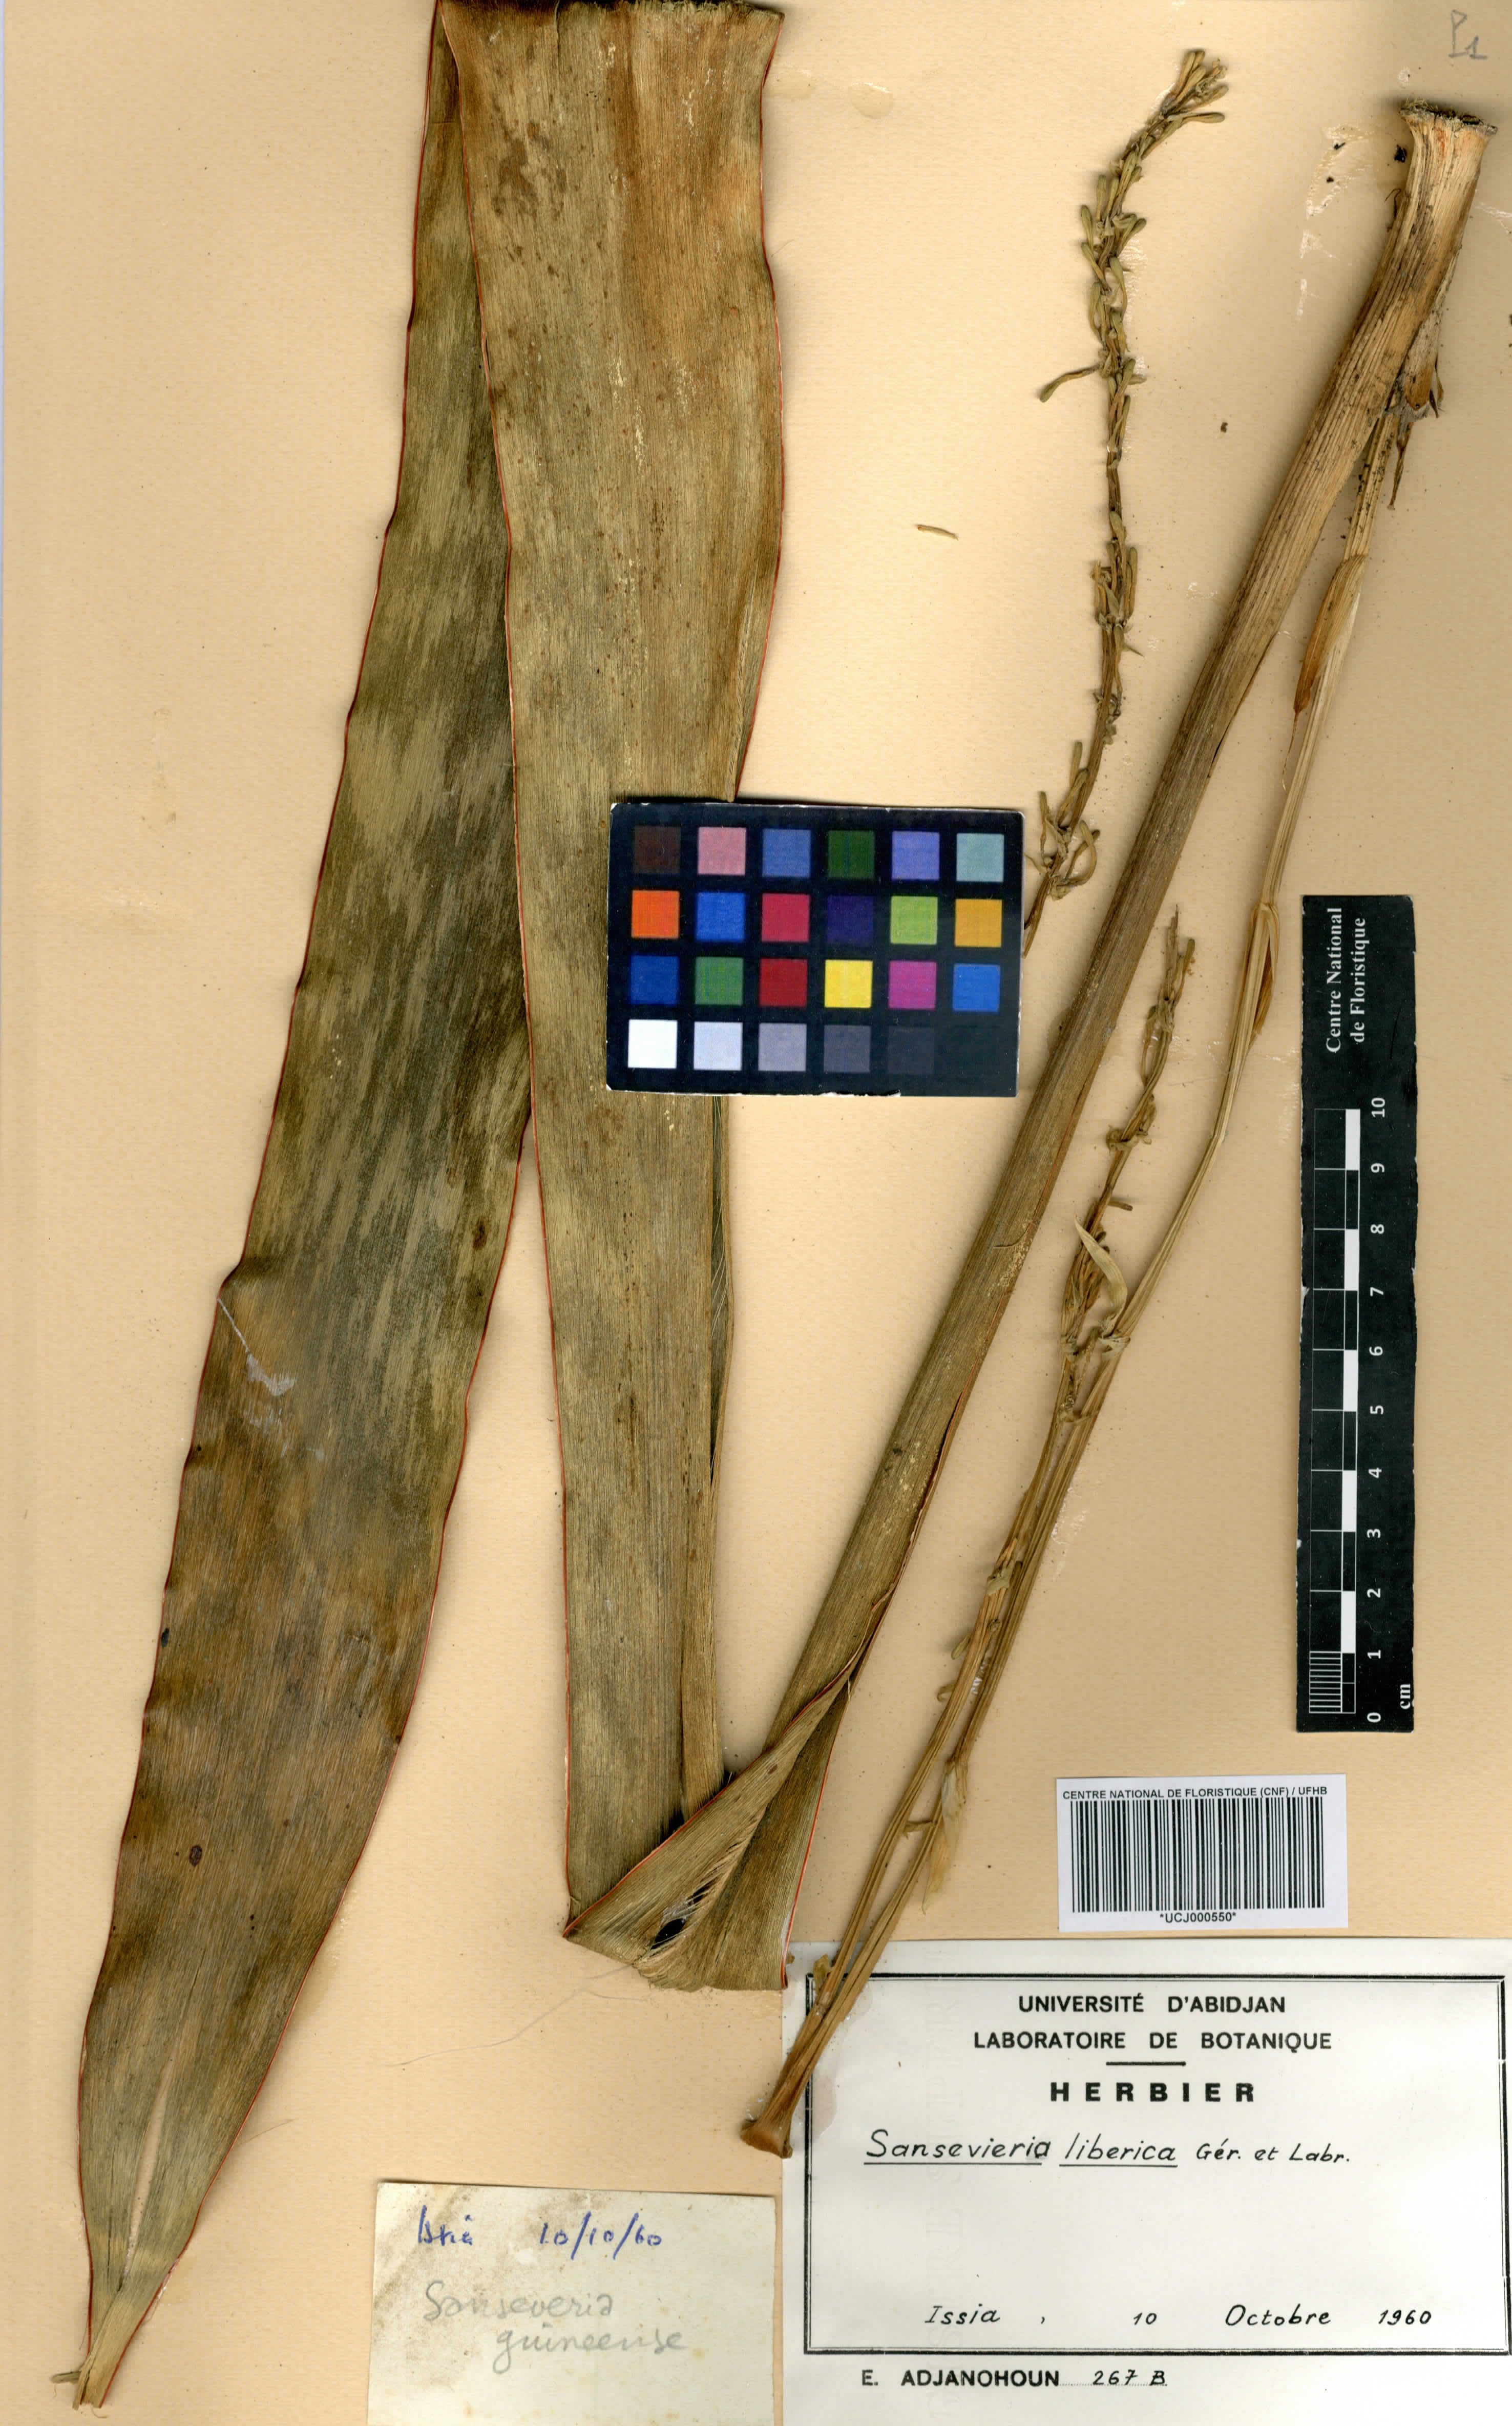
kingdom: Plantae
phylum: Tracheophyta
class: Liliopsida
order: Asparagales
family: Asparagaceae
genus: Dracaena
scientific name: Dracaena liberica
